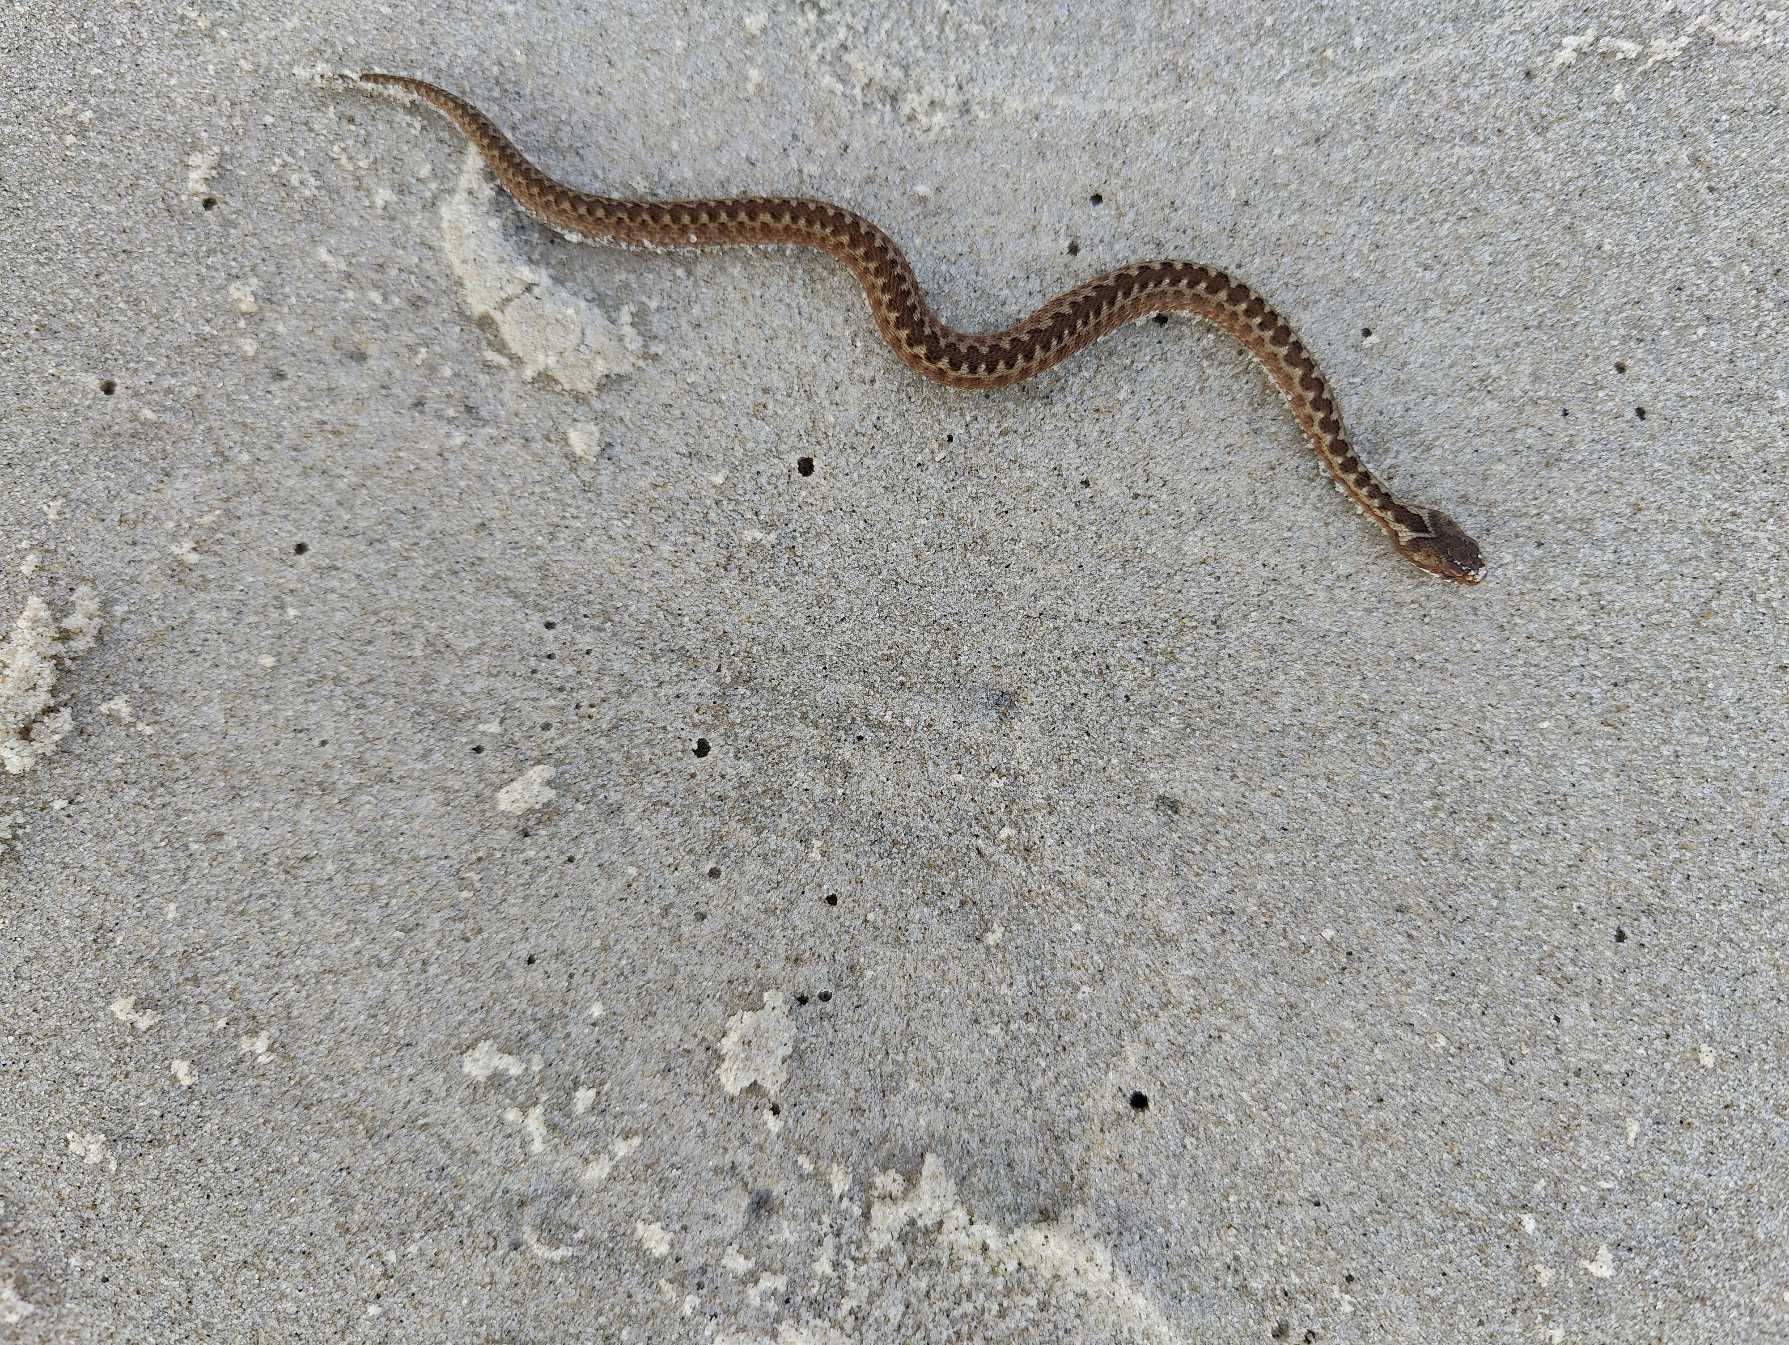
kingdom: Animalia
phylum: Chordata
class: Squamata
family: Viperidae
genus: Vipera
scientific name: Vipera berus
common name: Hugorm
